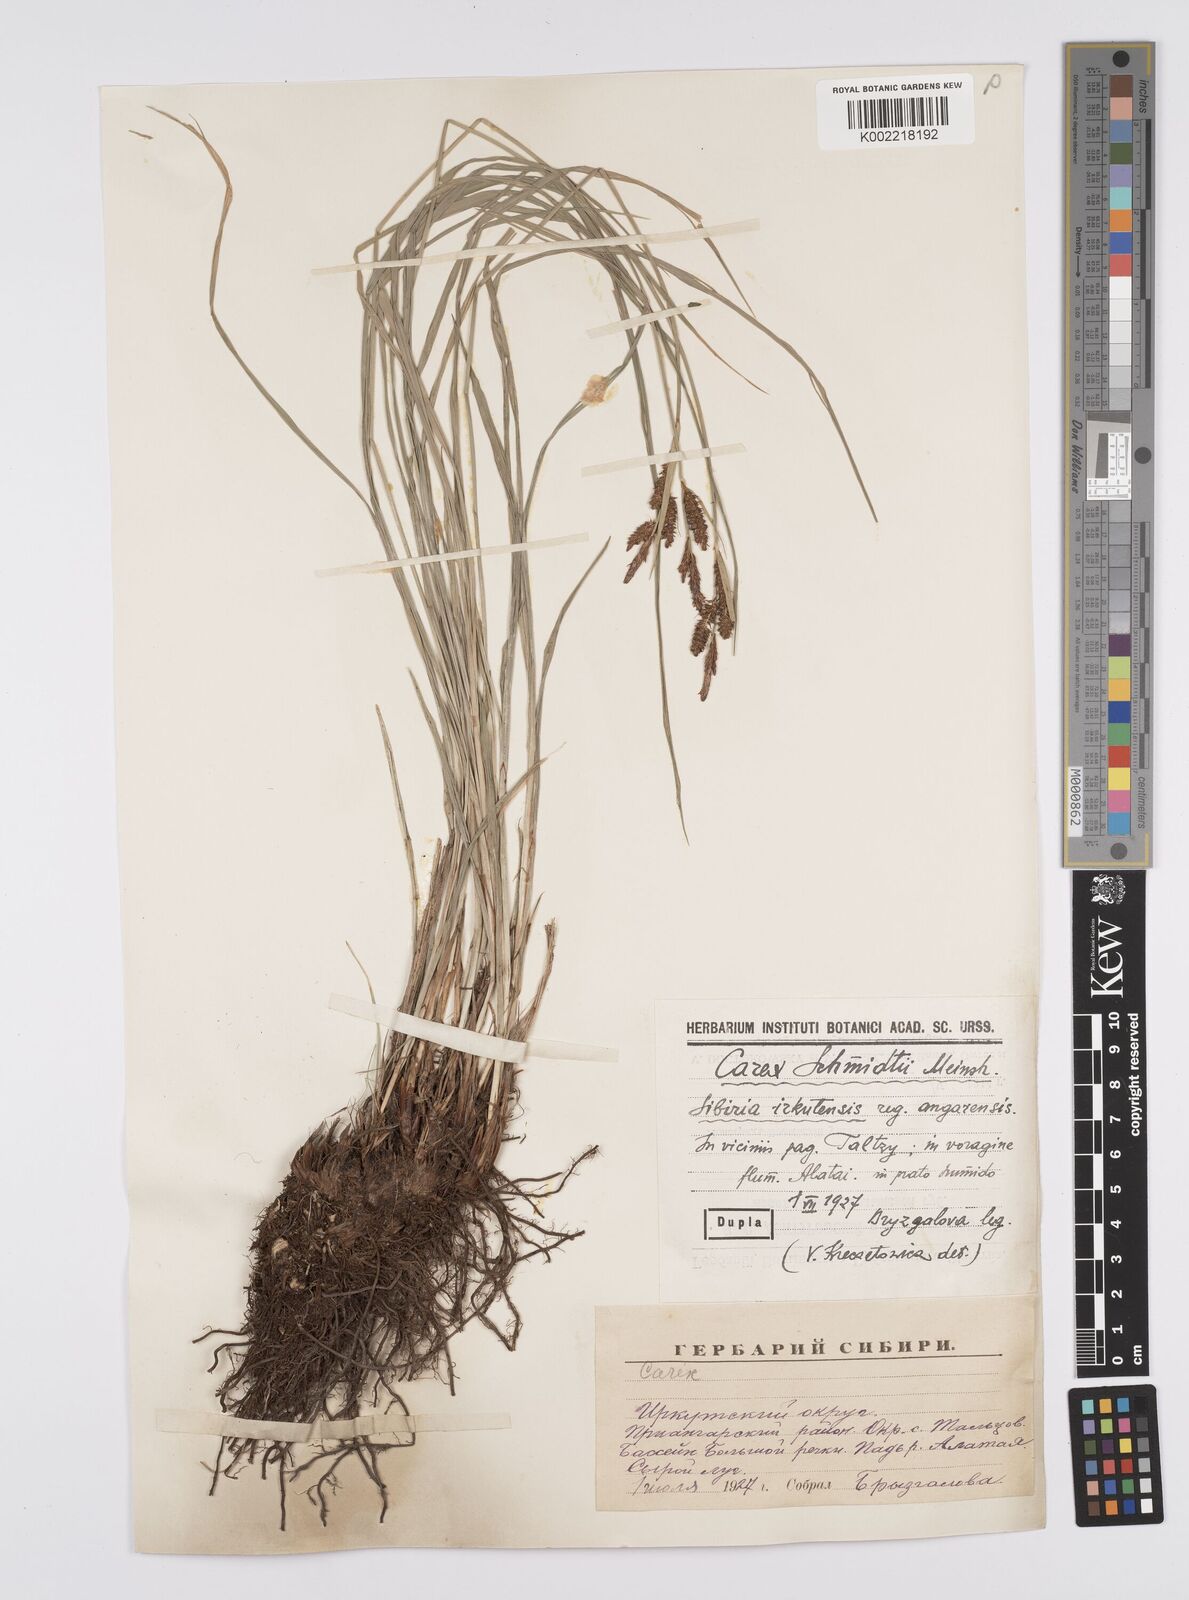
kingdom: Plantae
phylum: Tracheophyta
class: Liliopsida
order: Poales
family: Cyperaceae
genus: Carex
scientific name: Carex schmidtii
